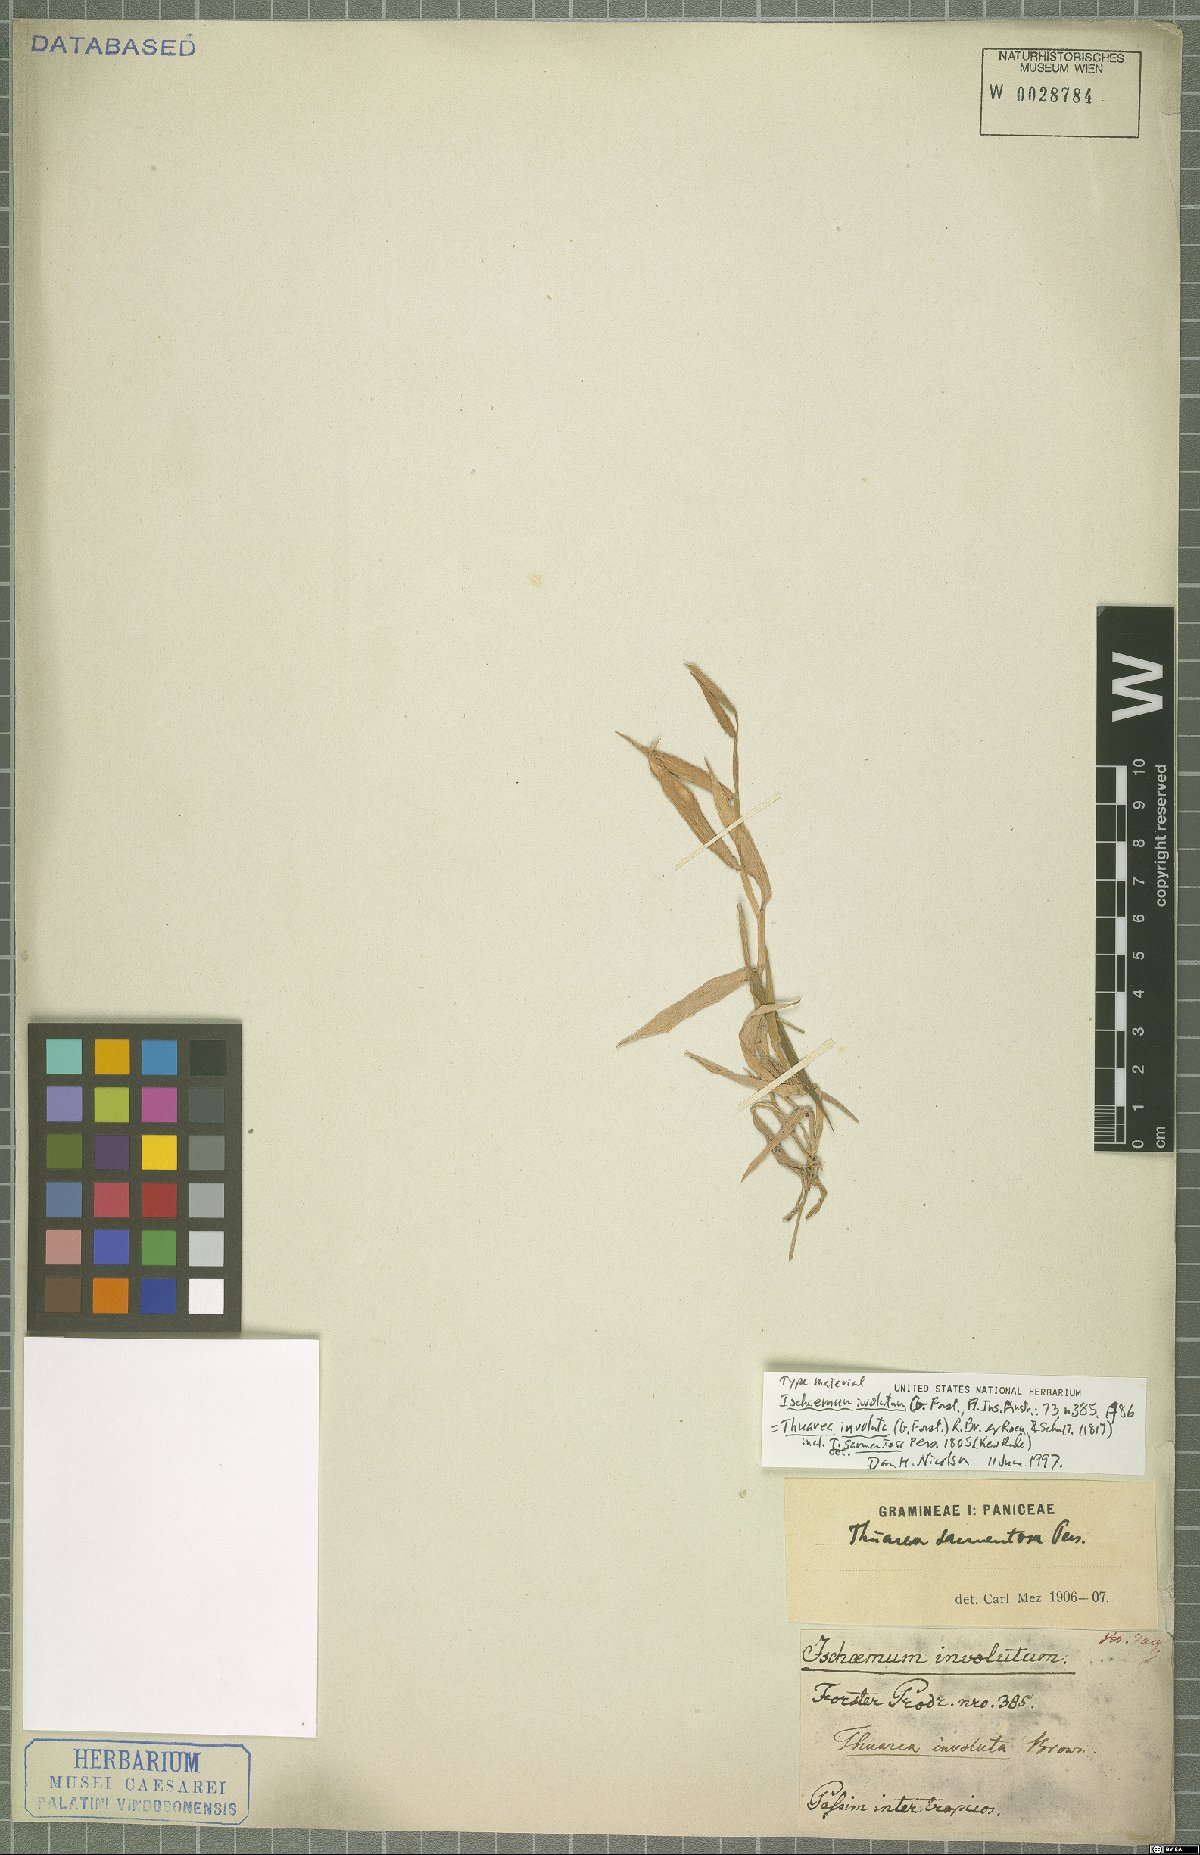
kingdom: Plantae
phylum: Tracheophyta
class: Liliopsida
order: Poales
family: Poaceae
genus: Thuarea
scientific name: Thuarea involuta
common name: Tropical beach grass
